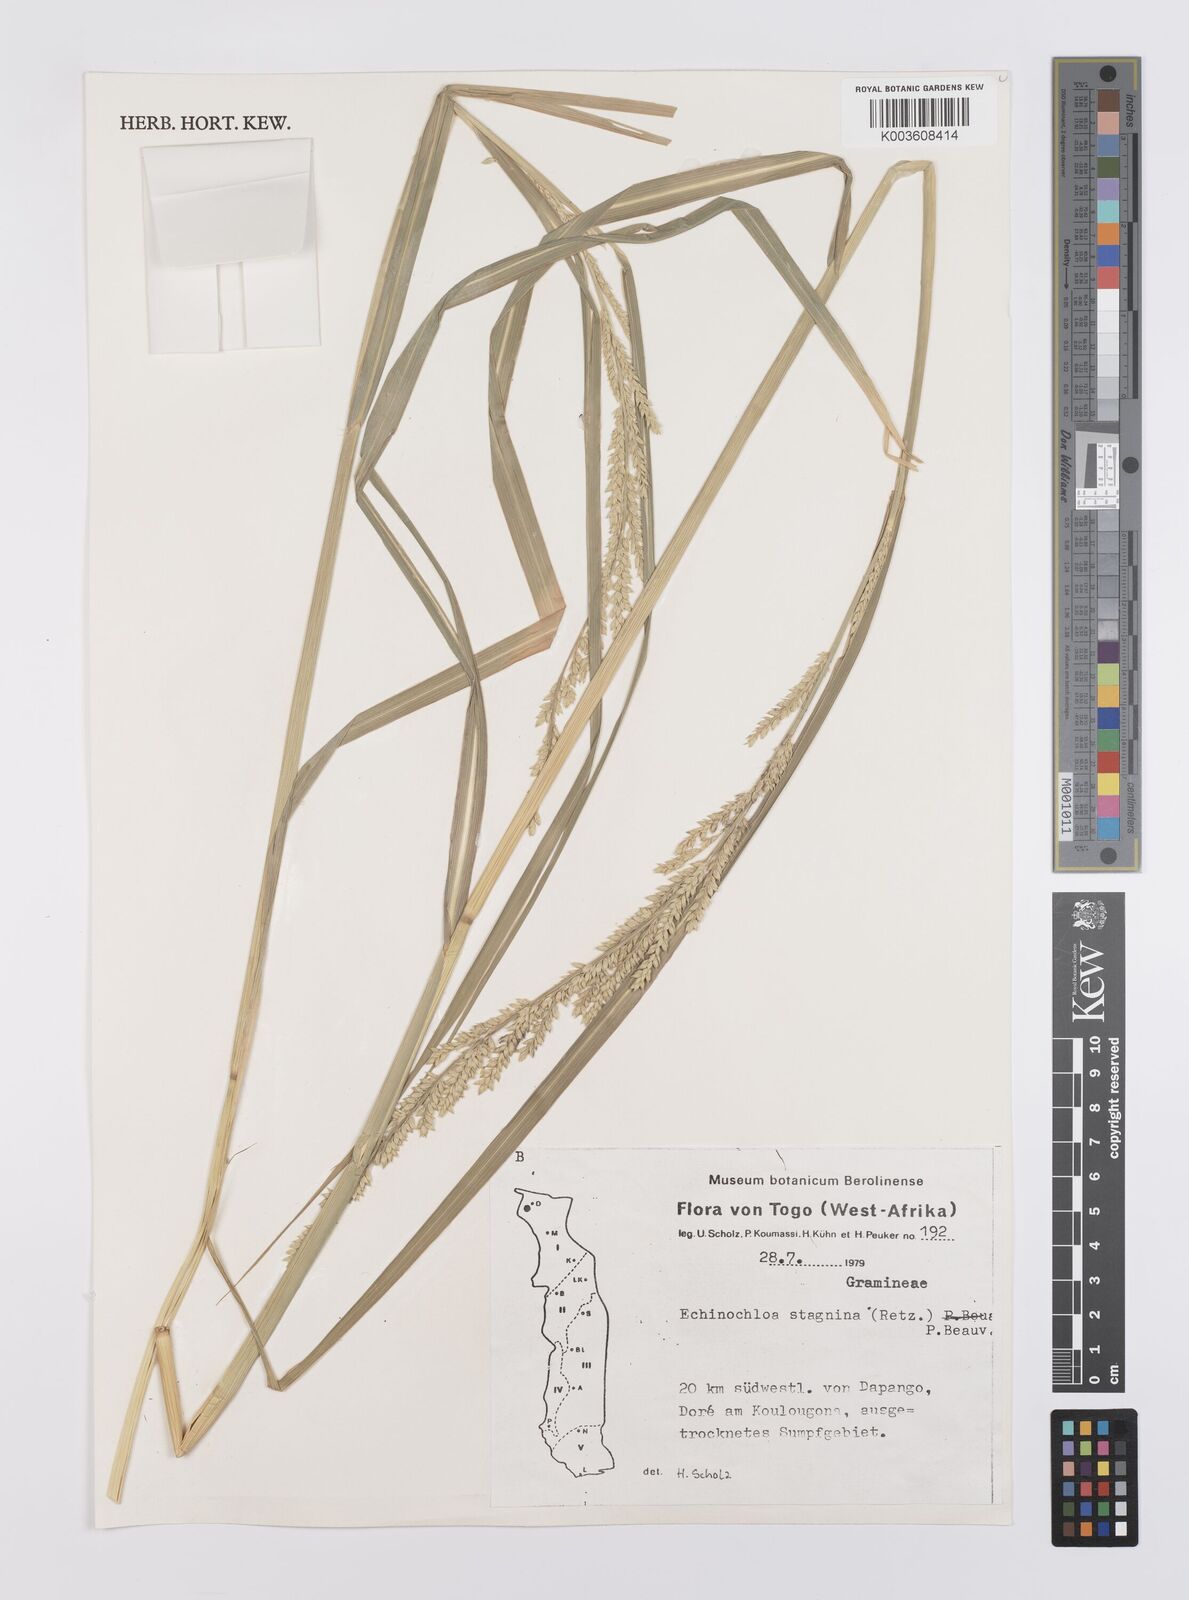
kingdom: Plantae
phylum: Tracheophyta
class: Liliopsida
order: Poales
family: Poaceae
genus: Echinochloa
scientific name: Echinochloa pyramidalis
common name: Antelope grass
